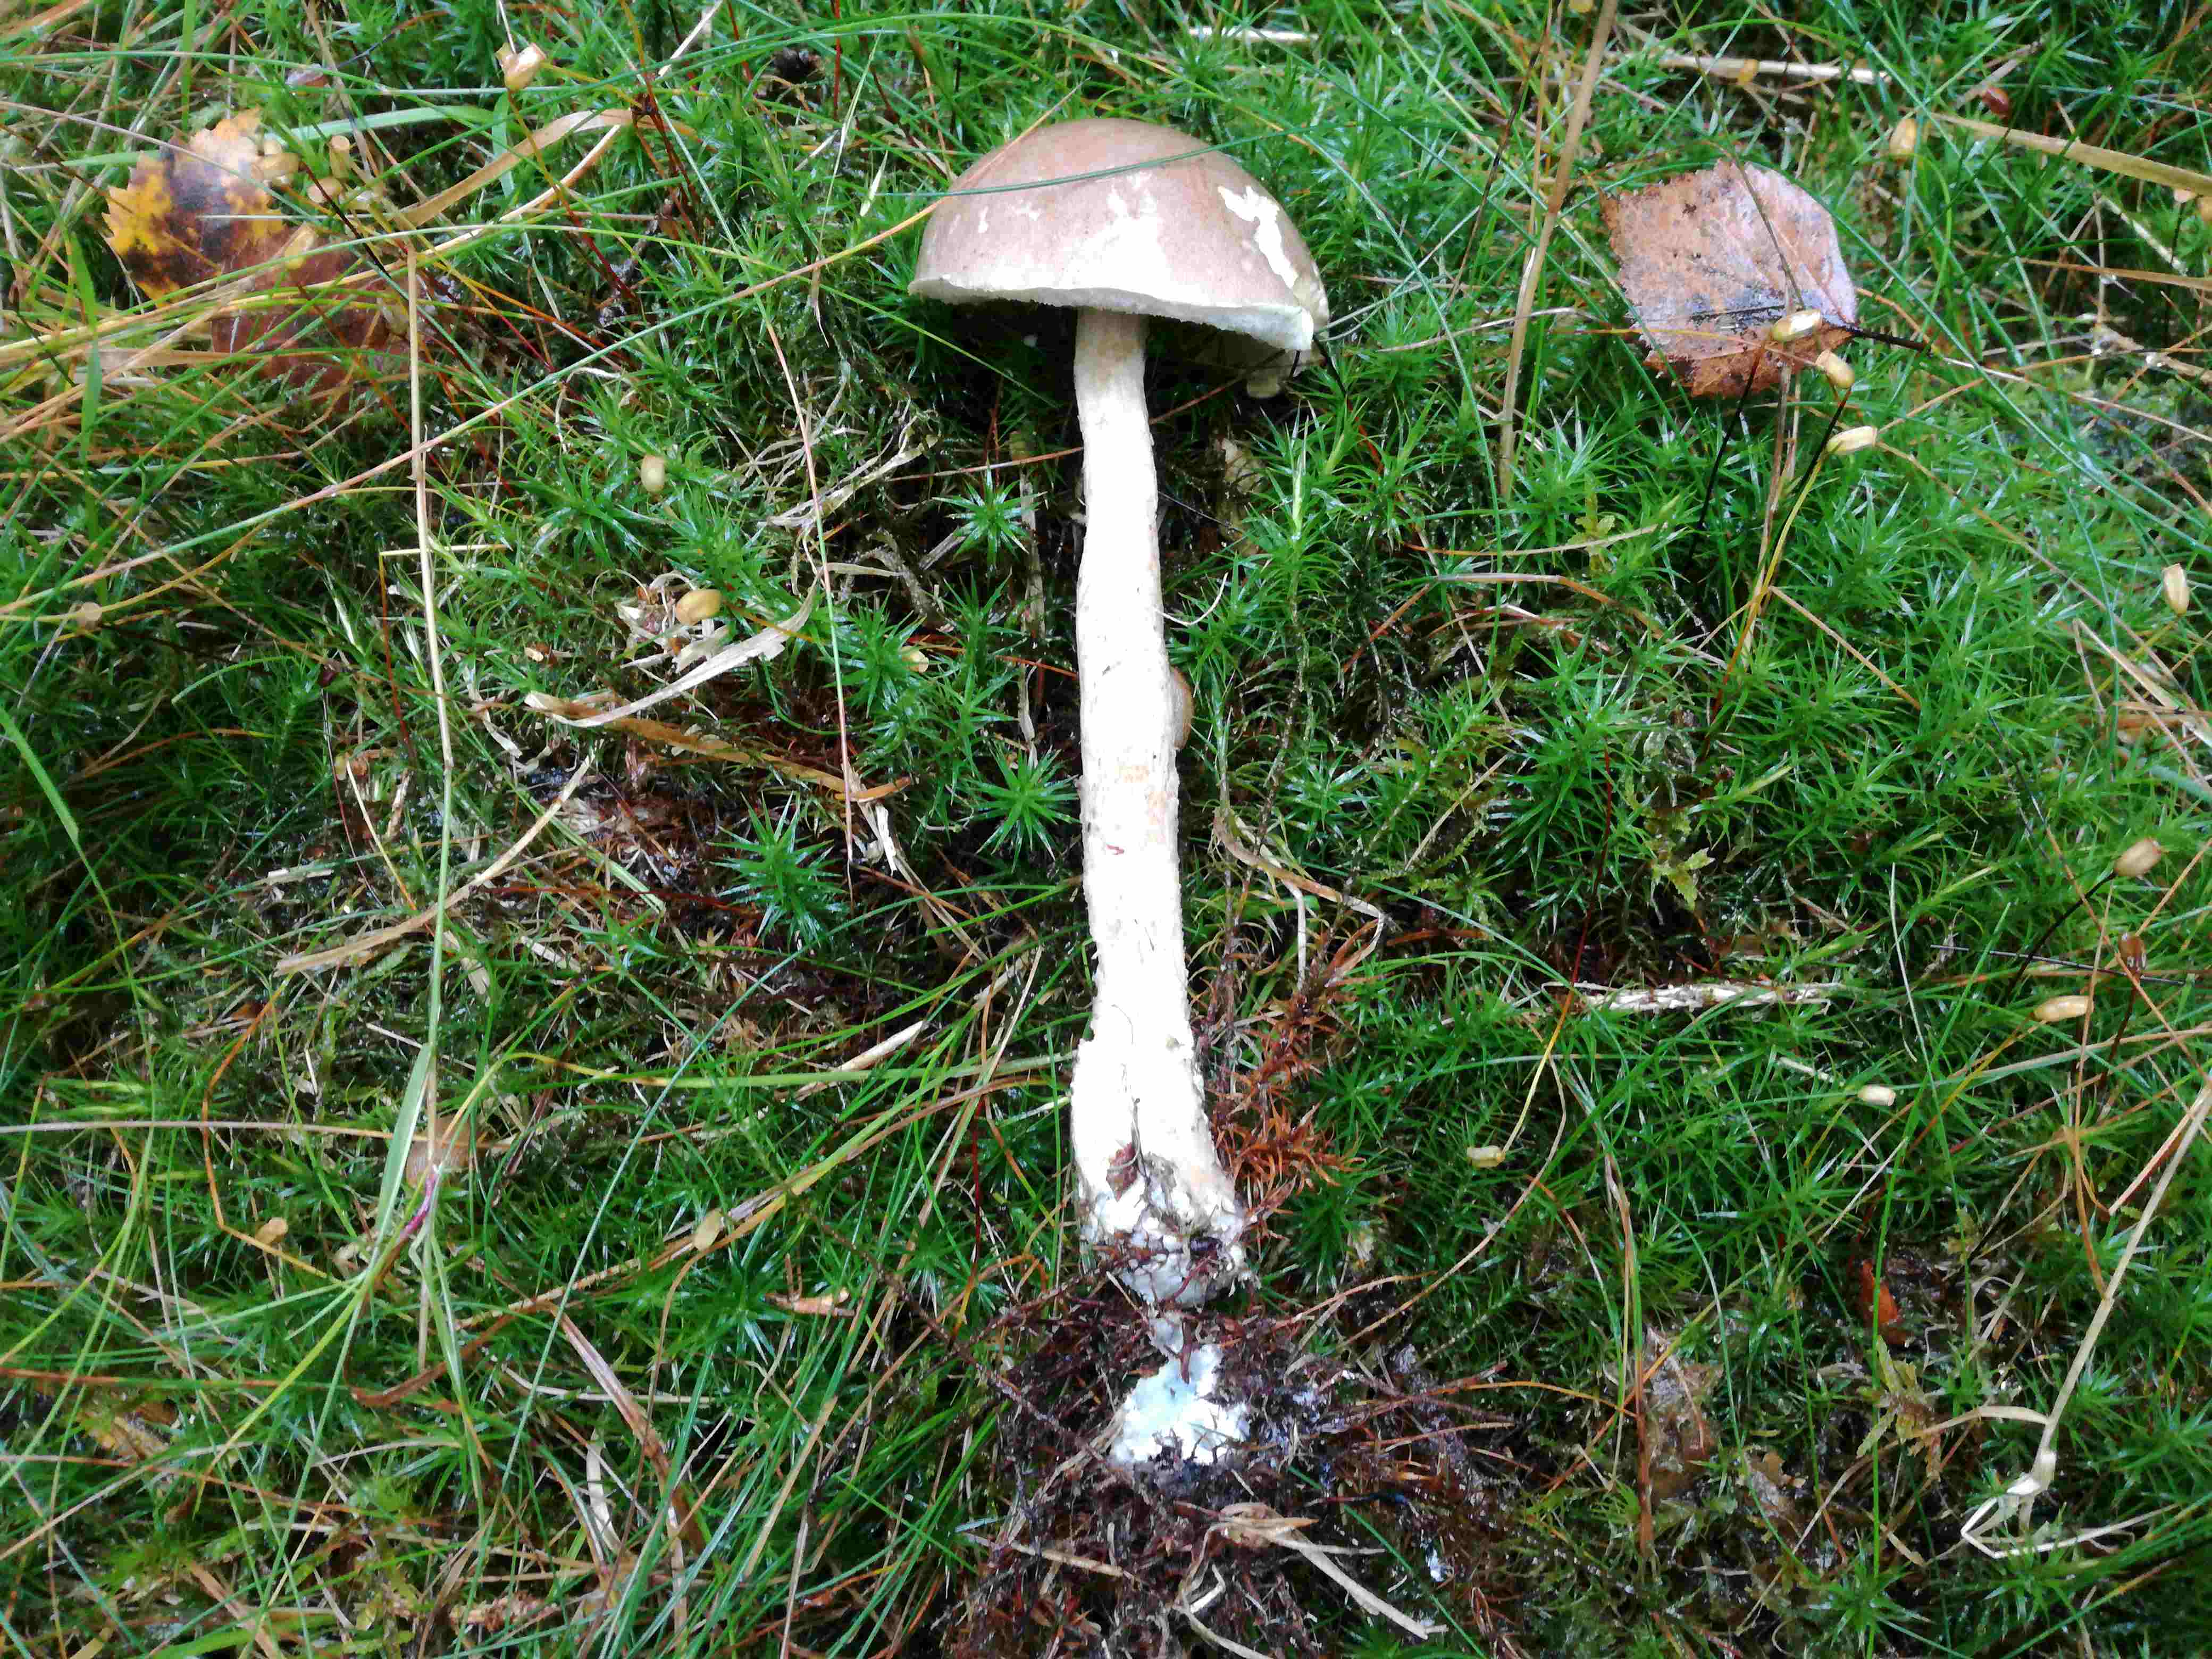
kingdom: Fungi
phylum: Basidiomycota
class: Agaricomycetes
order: Boletales
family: Boletaceae
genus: Leccinum
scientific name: Leccinum
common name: skælrørhat
